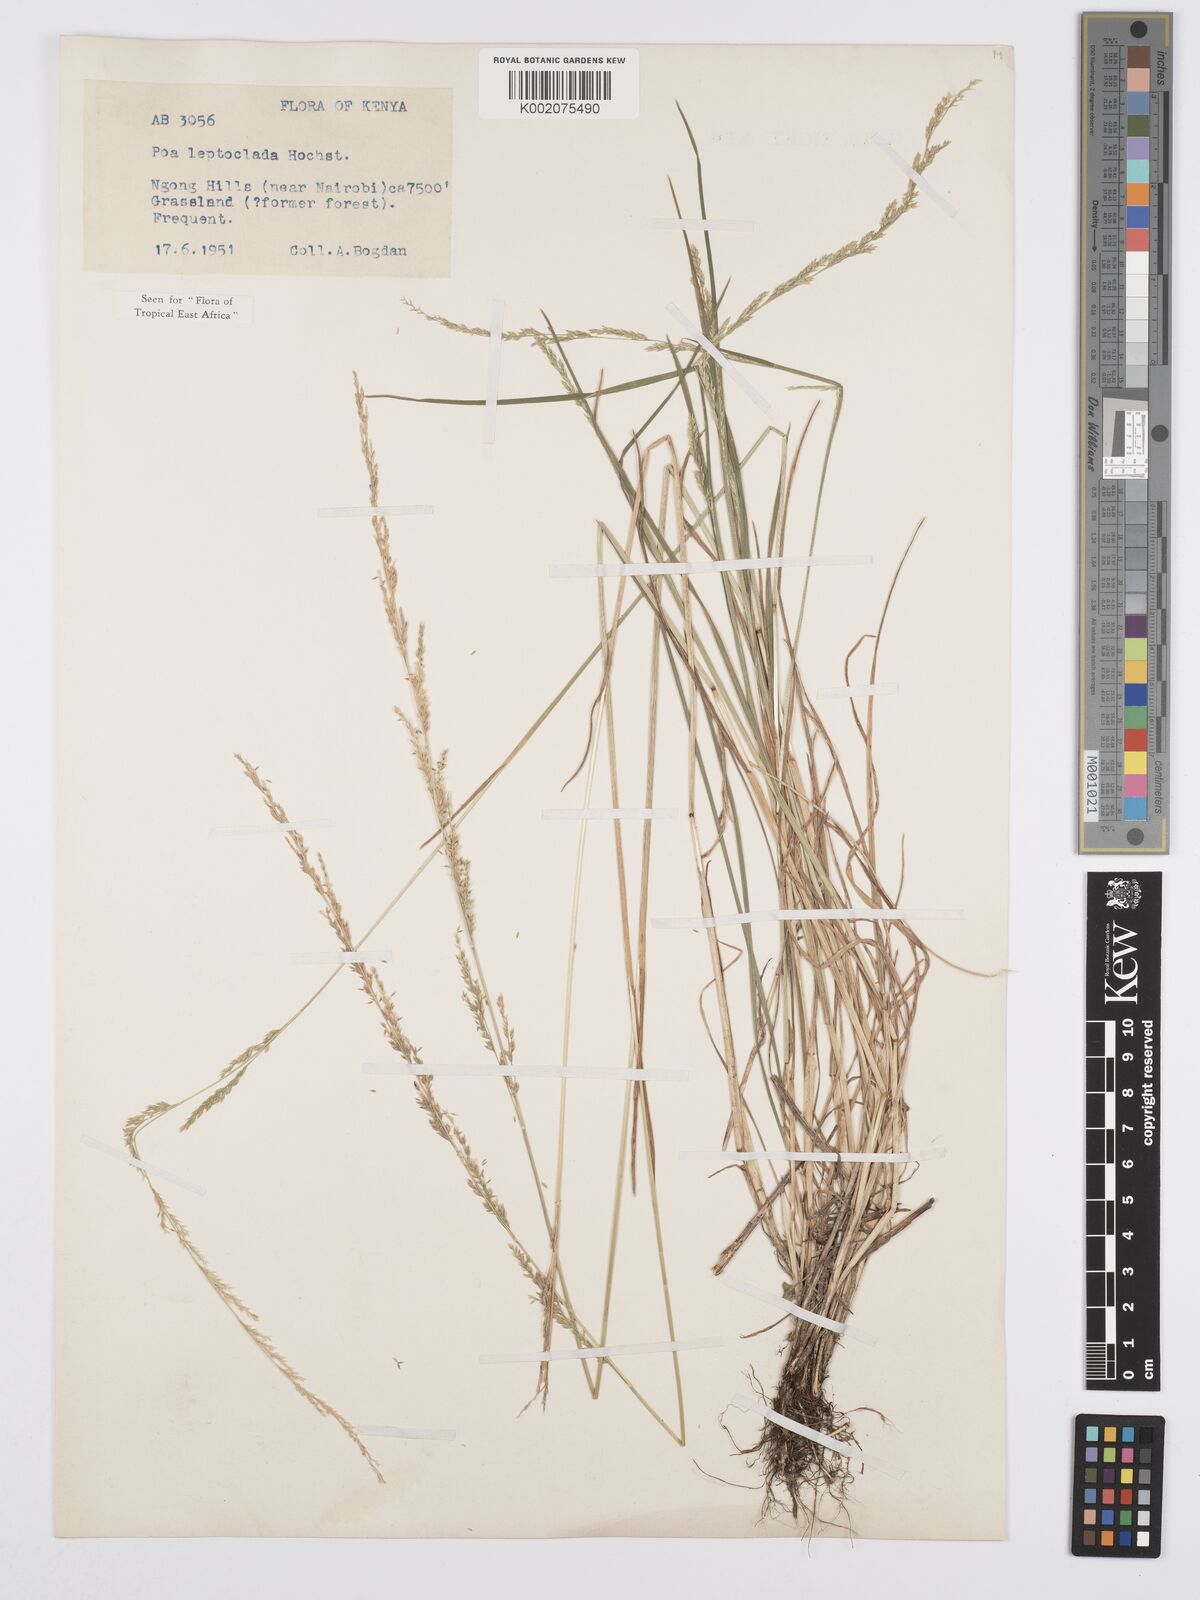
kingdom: Plantae
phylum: Tracheophyta
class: Liliopsida
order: Poales
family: Poaceae
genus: Poa
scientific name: Poa leptoclada
